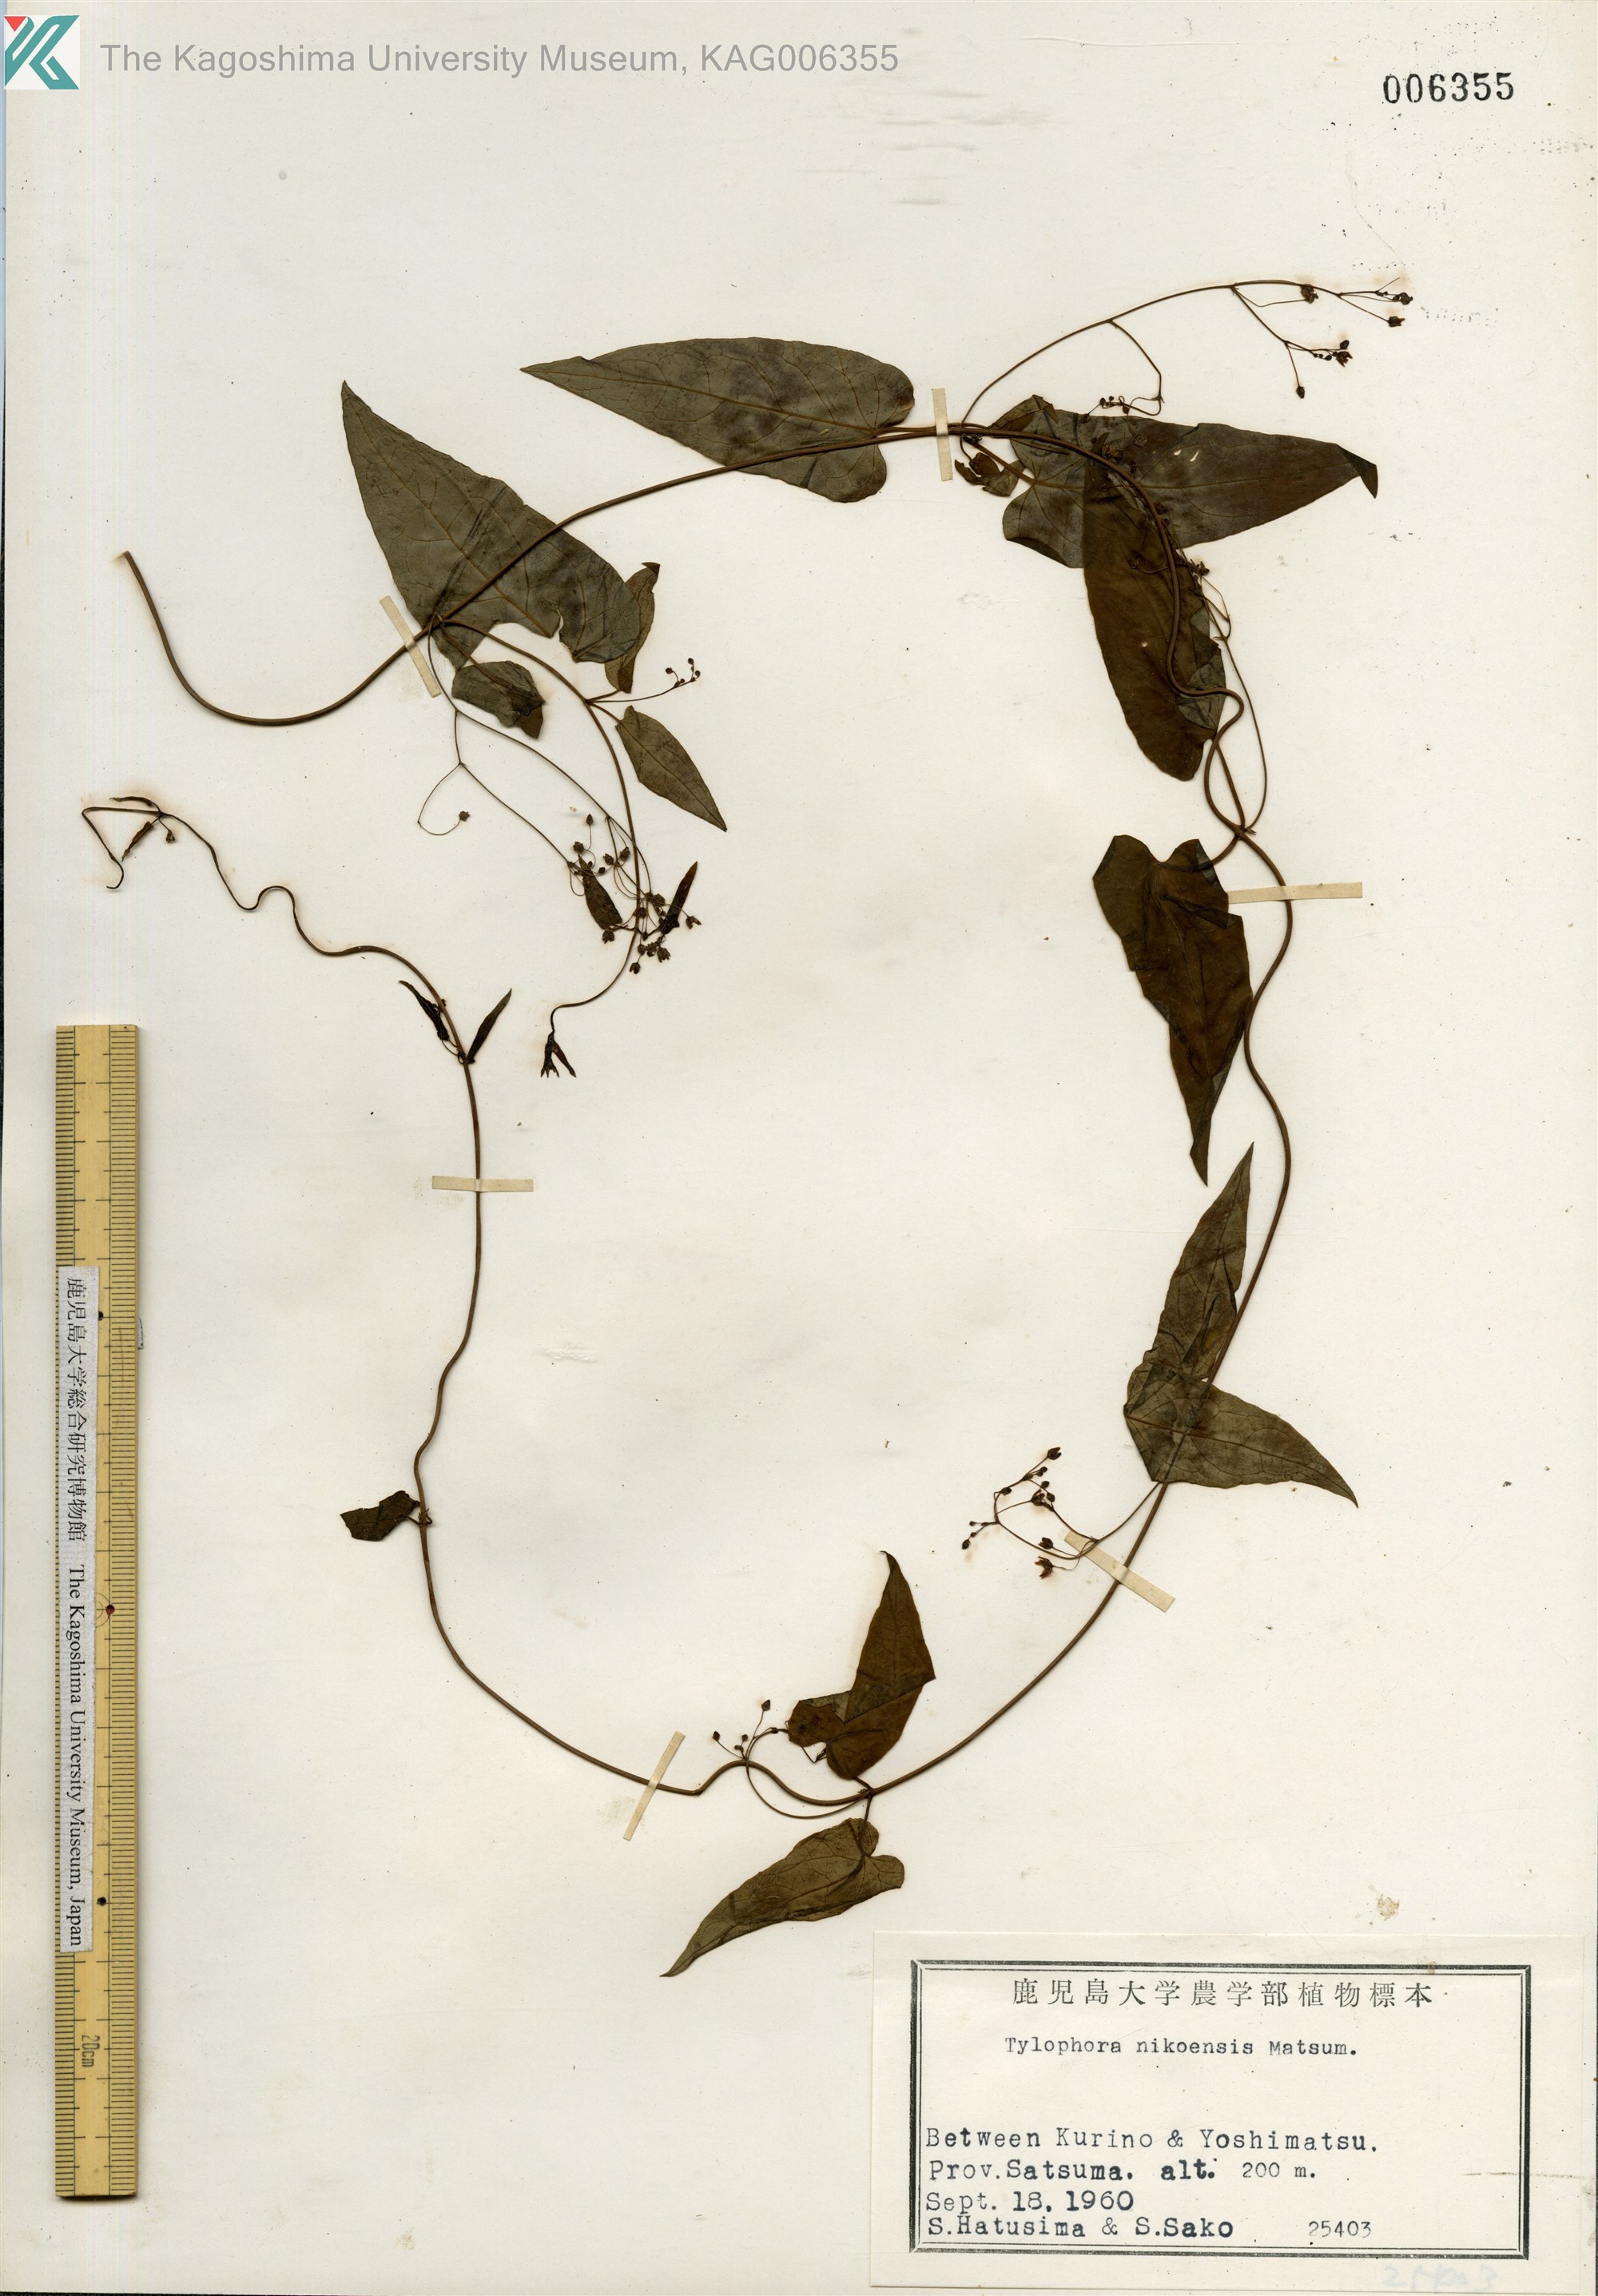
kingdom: Plantae
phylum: Tracheophyta
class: Magnoliopsida
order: Gentianales
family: Apocynaceae
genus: Vincetoxicum
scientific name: Vincetoxicum nikoense
